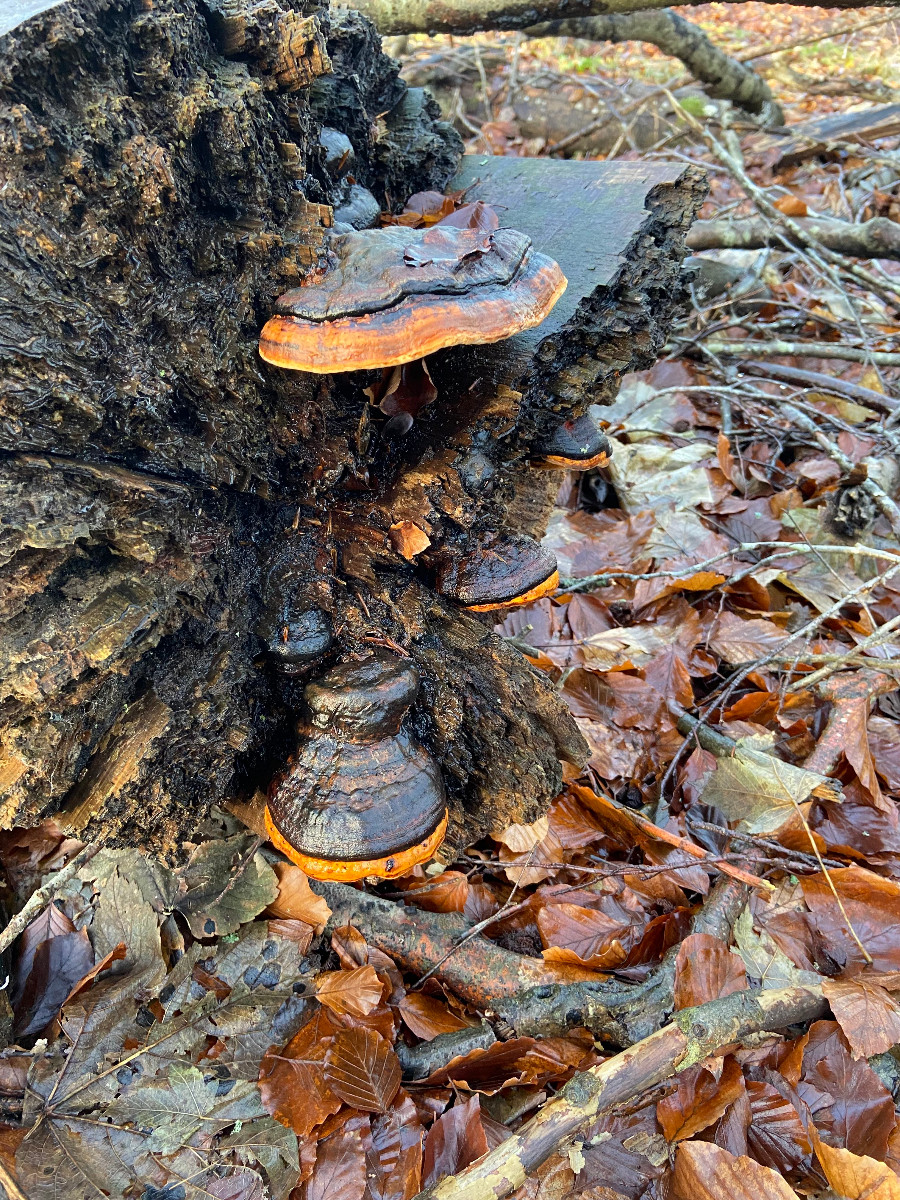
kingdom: Fungi
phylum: Basidiomycota
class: Agaricomycetes
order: Polyporales
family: Fomitopsidaceae
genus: Fomitopsis
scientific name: Fomitopsis pinicola
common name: randbæltet hovporesvamp
